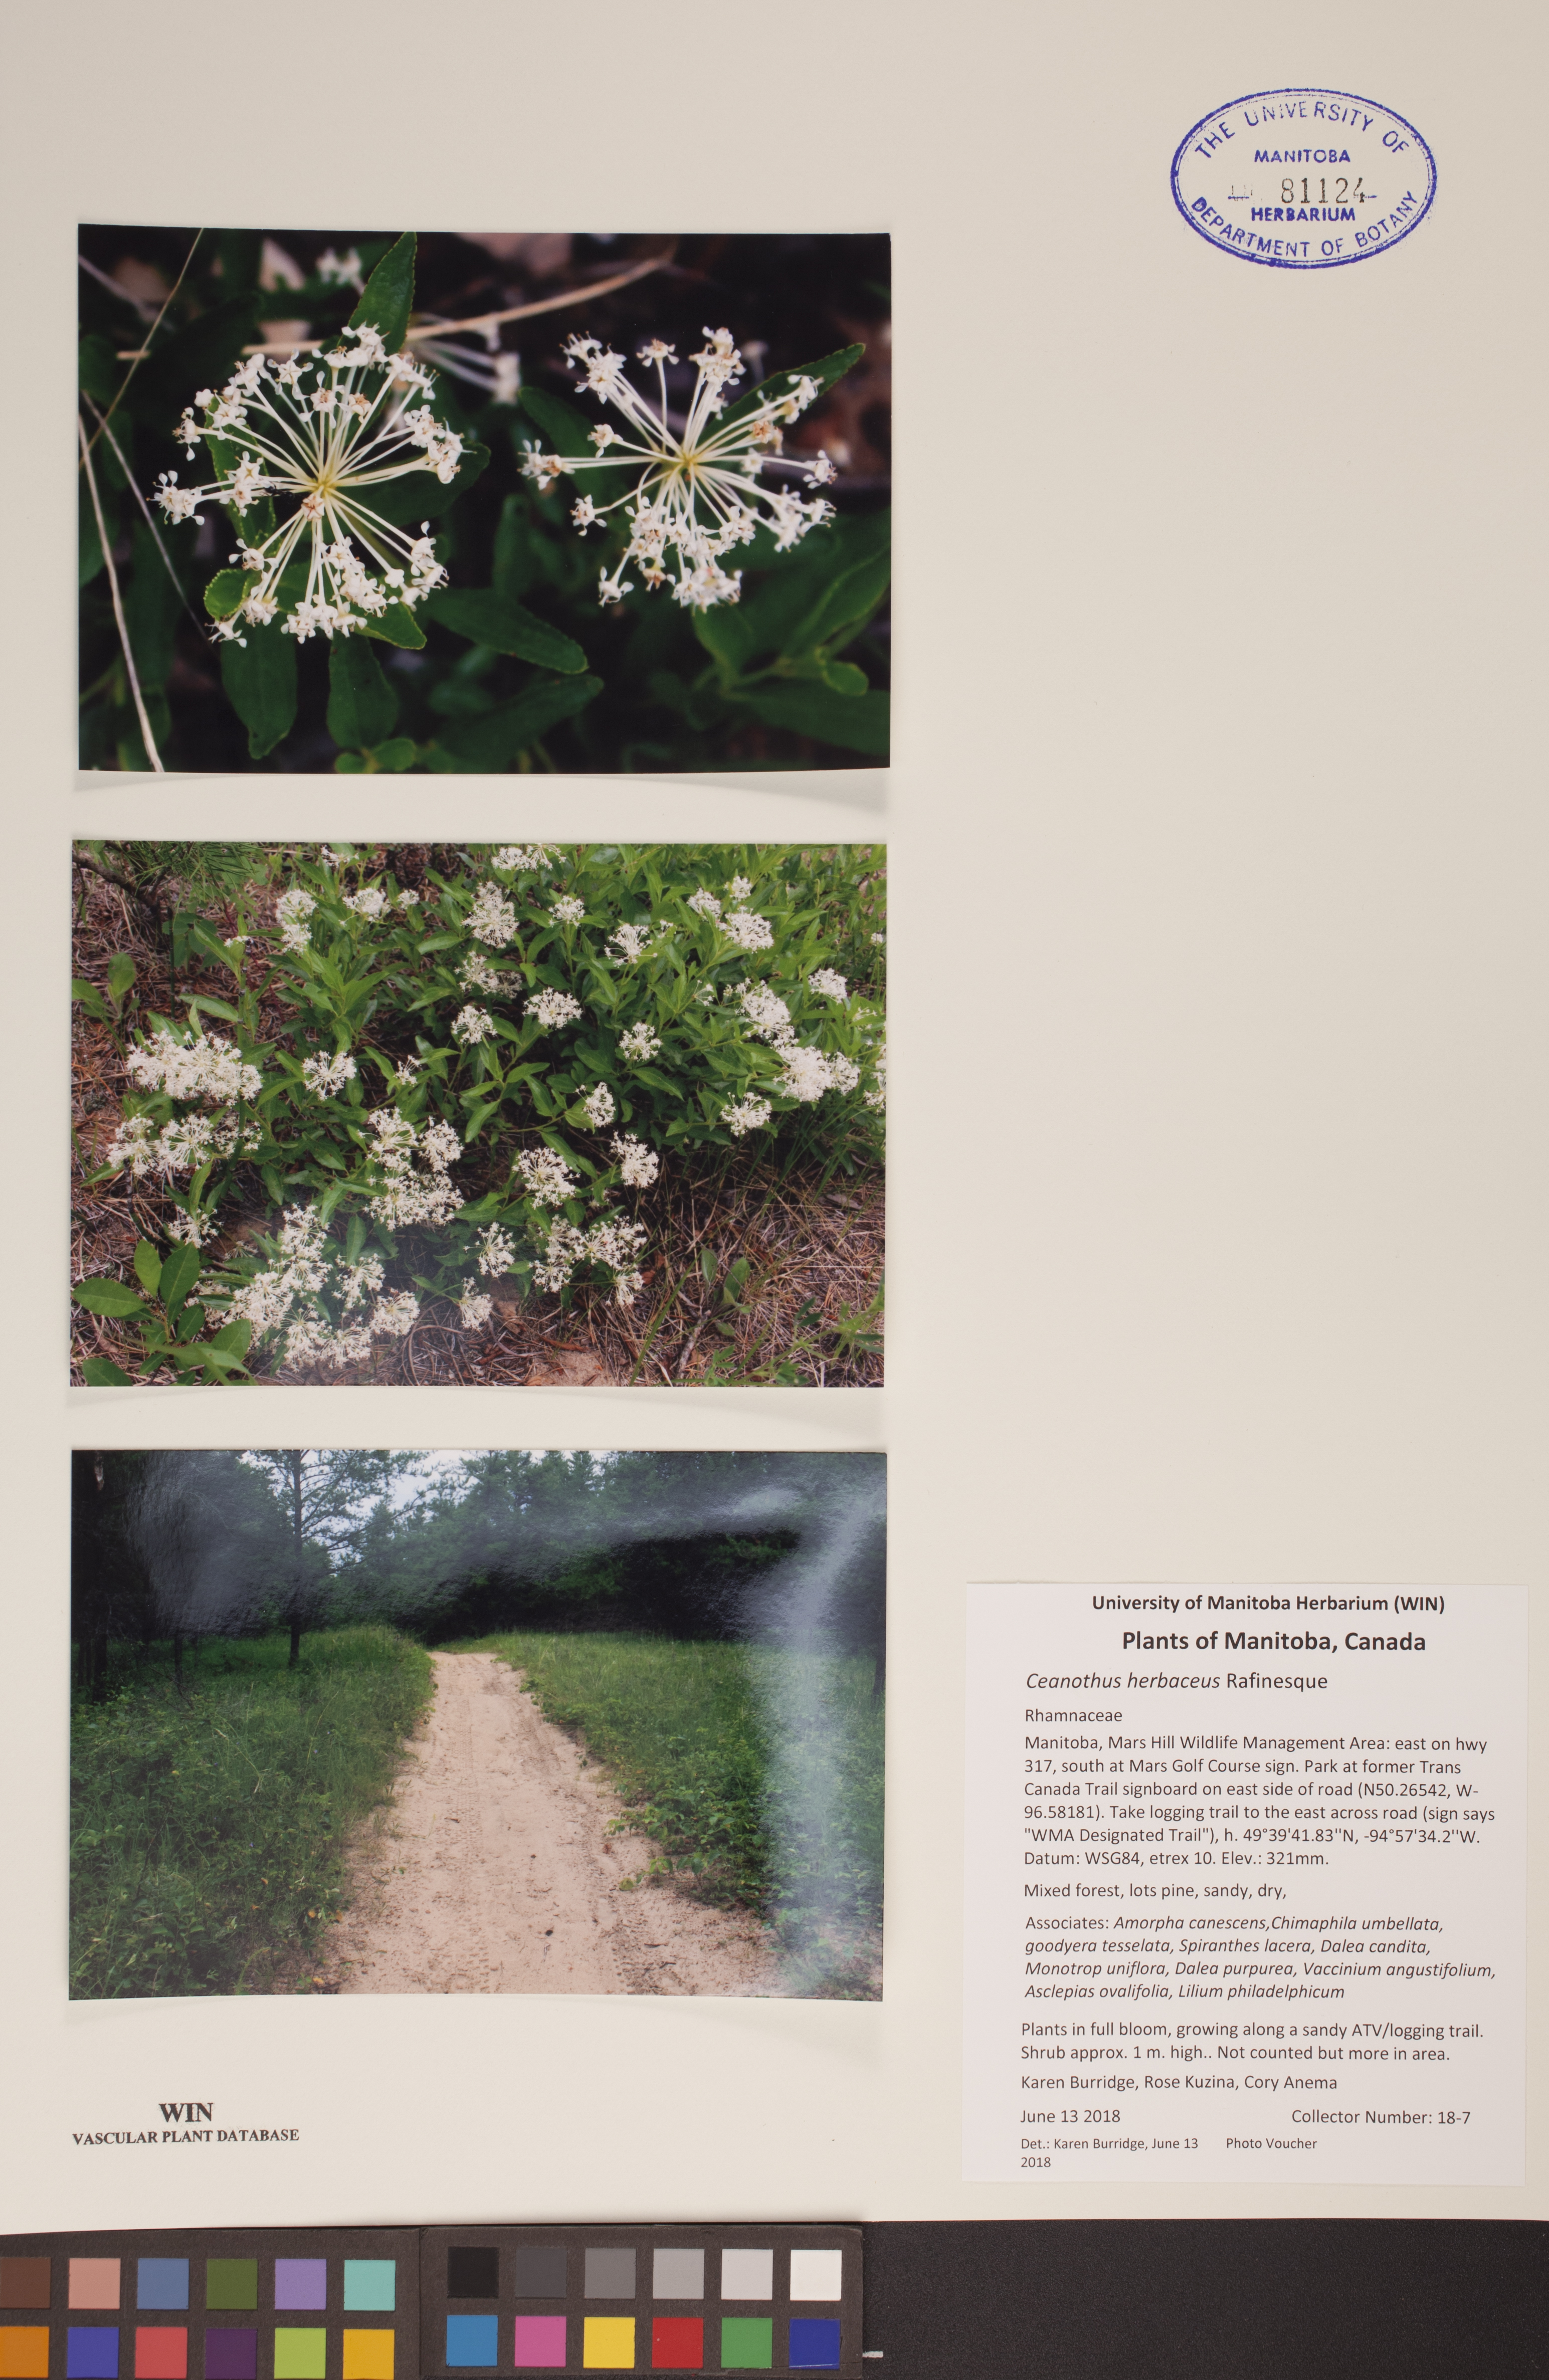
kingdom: Plantae
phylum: Tracheophyta
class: Magnoliopsida
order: Rosales
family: Rhamnaceae
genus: Ceanothus
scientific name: Ceanothus herbaceus
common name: Inland ceanothus
